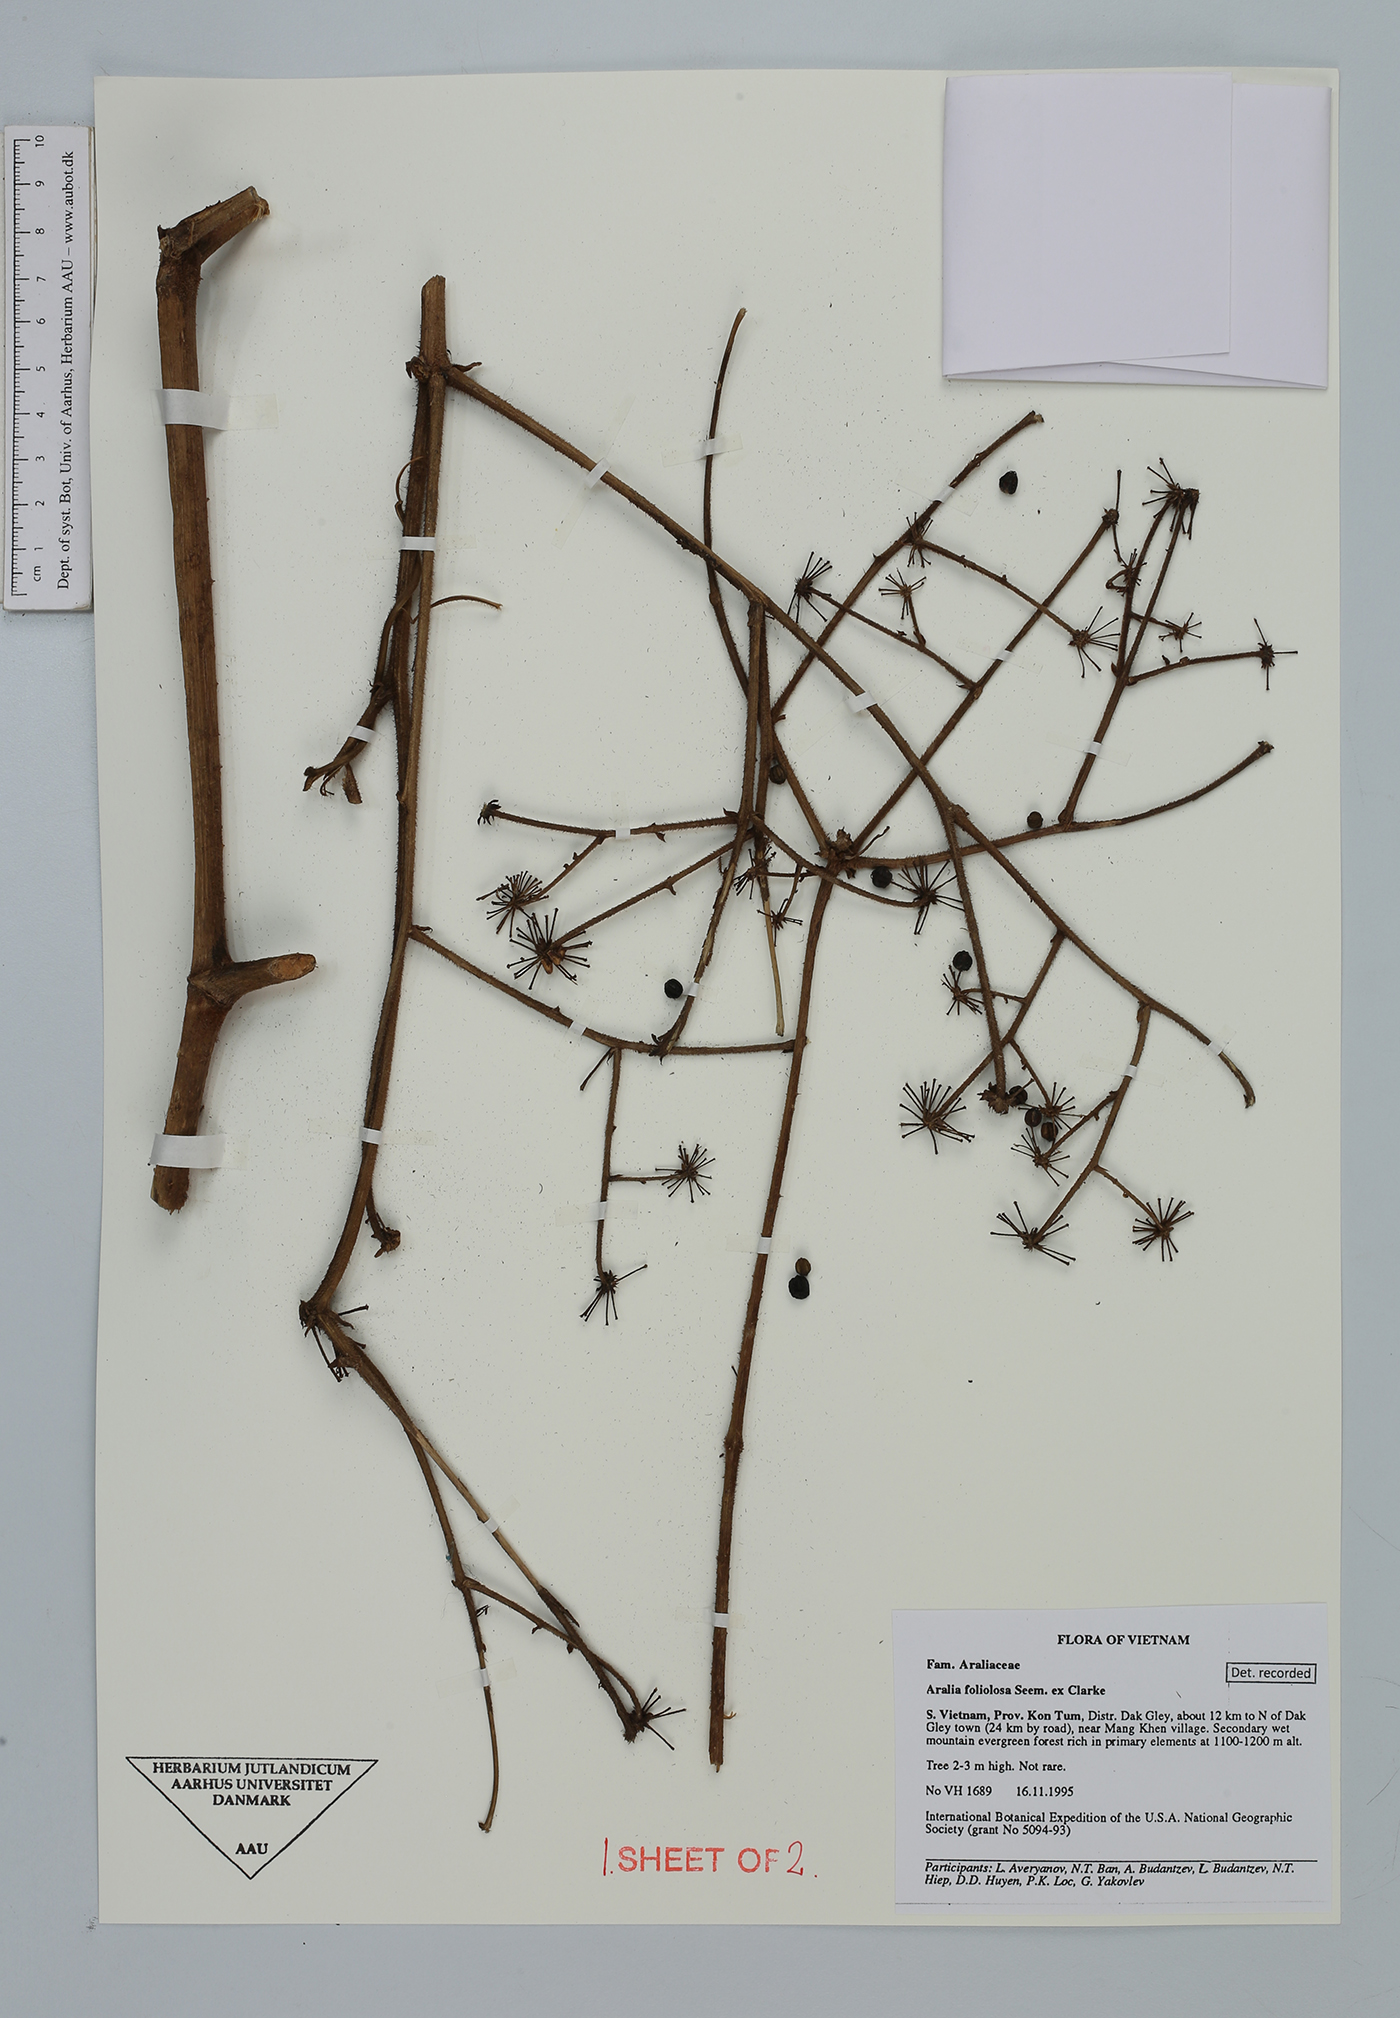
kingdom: Plantae
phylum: Tracheophyta
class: Magnoliopsida
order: Apiales
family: Araliaceae
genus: Aralia
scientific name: Aralia foliolosa
